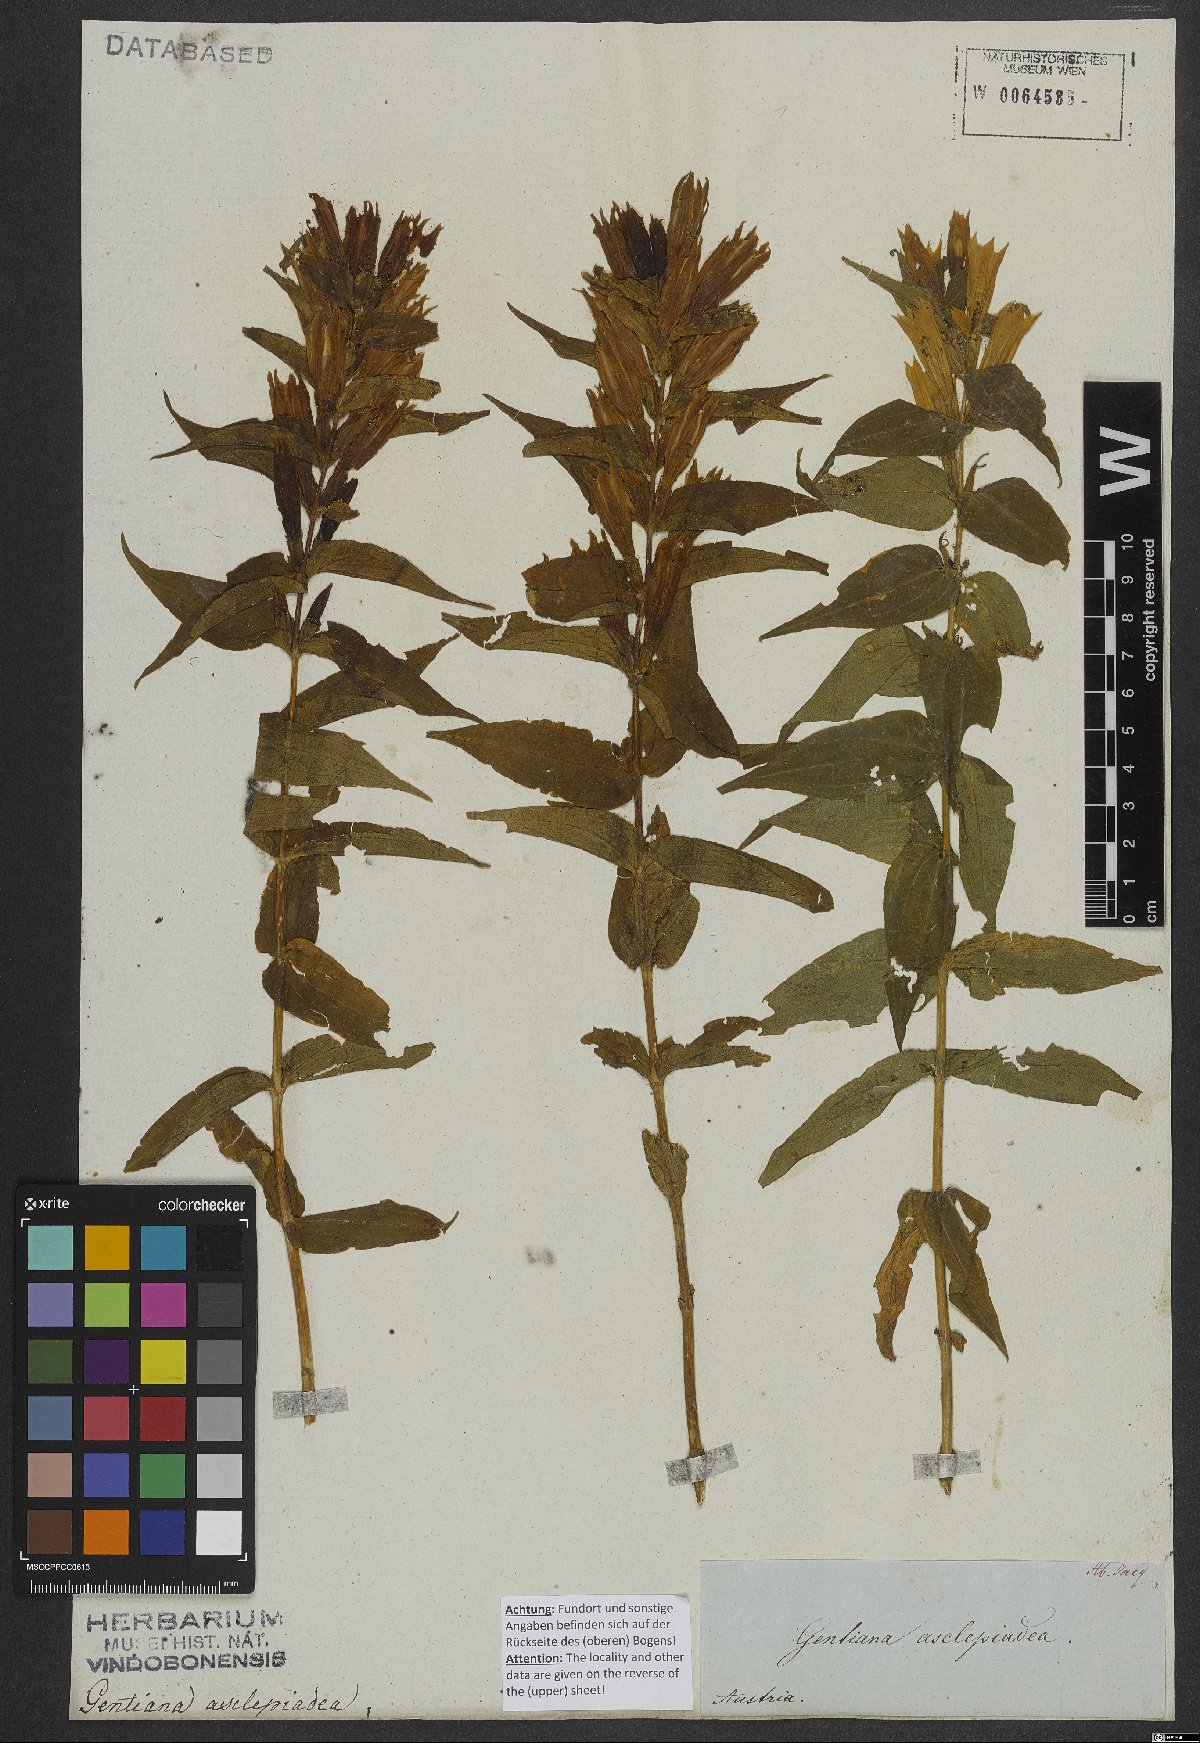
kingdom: Plantae
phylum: Tracheophyta
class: Magnoliopsida
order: Gentianales
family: Gentianaceae
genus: Gentiana
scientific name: Gentiana asclepiadea
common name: Willow gentian
